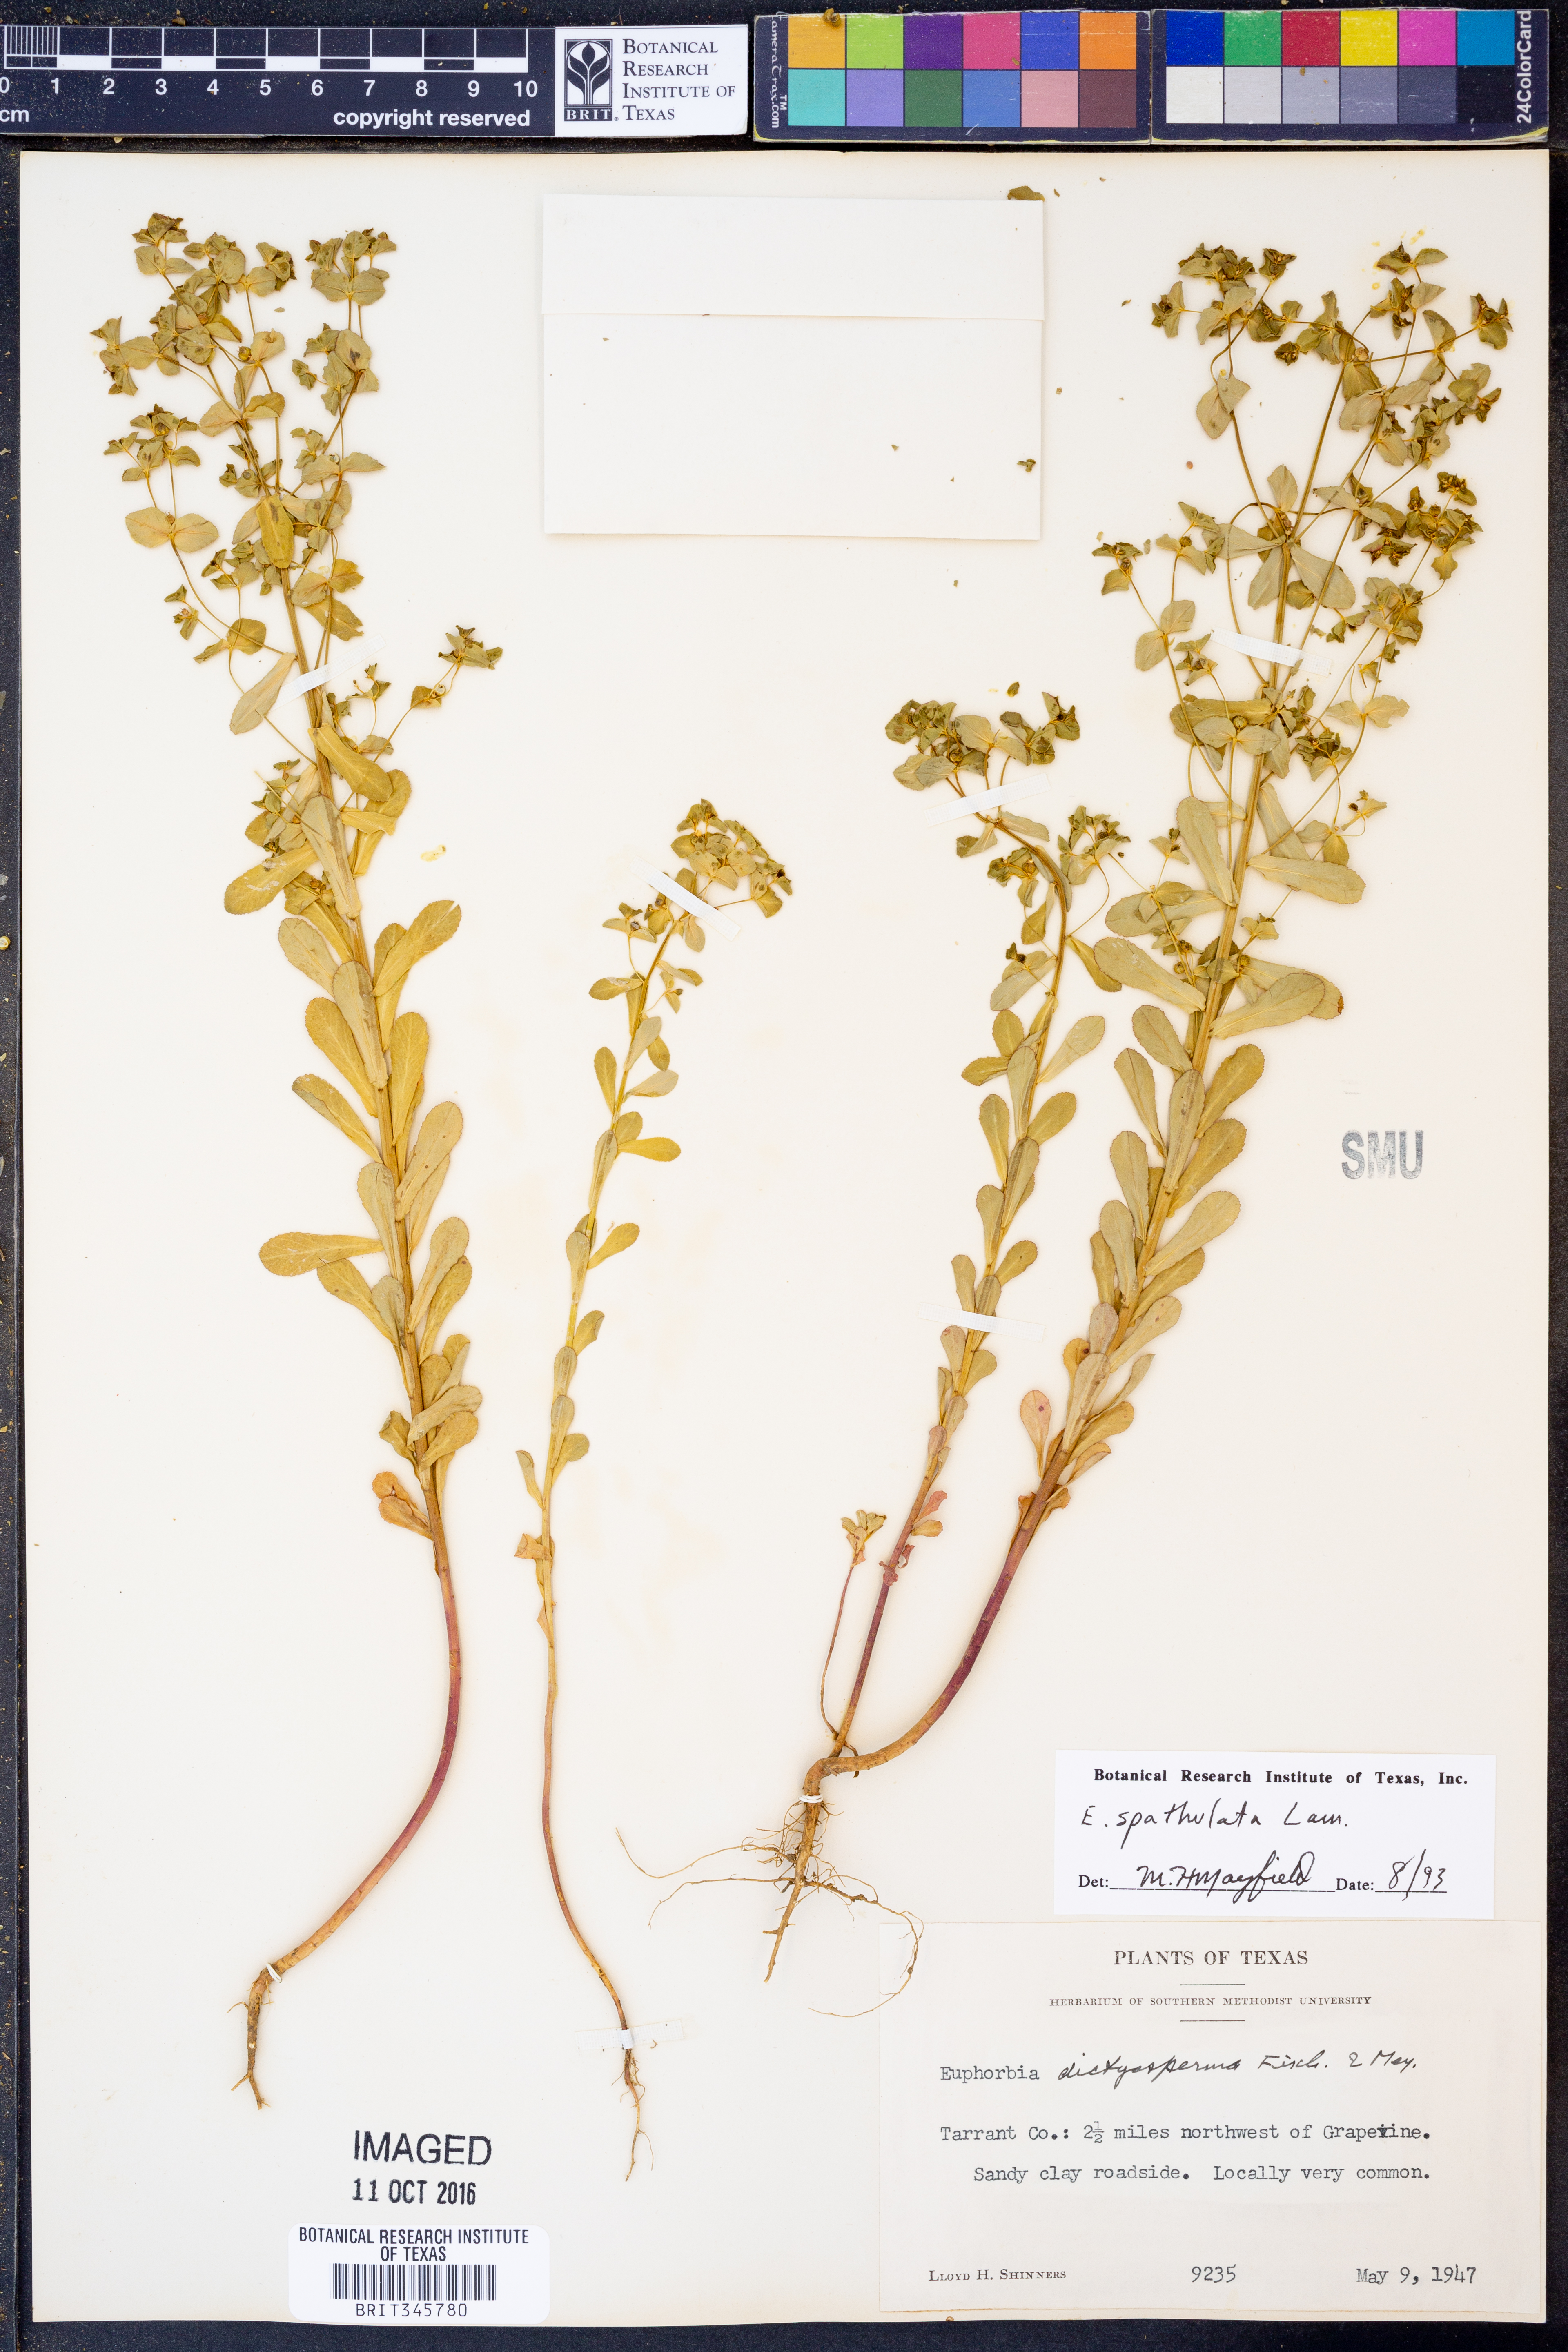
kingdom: Plantae
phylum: Tracheophyta
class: Magnoliopsida
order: Malpighiales
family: Euphorbiaceae
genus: Euphorbia
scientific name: Euphorbia spathulata
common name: Blunt spurge
